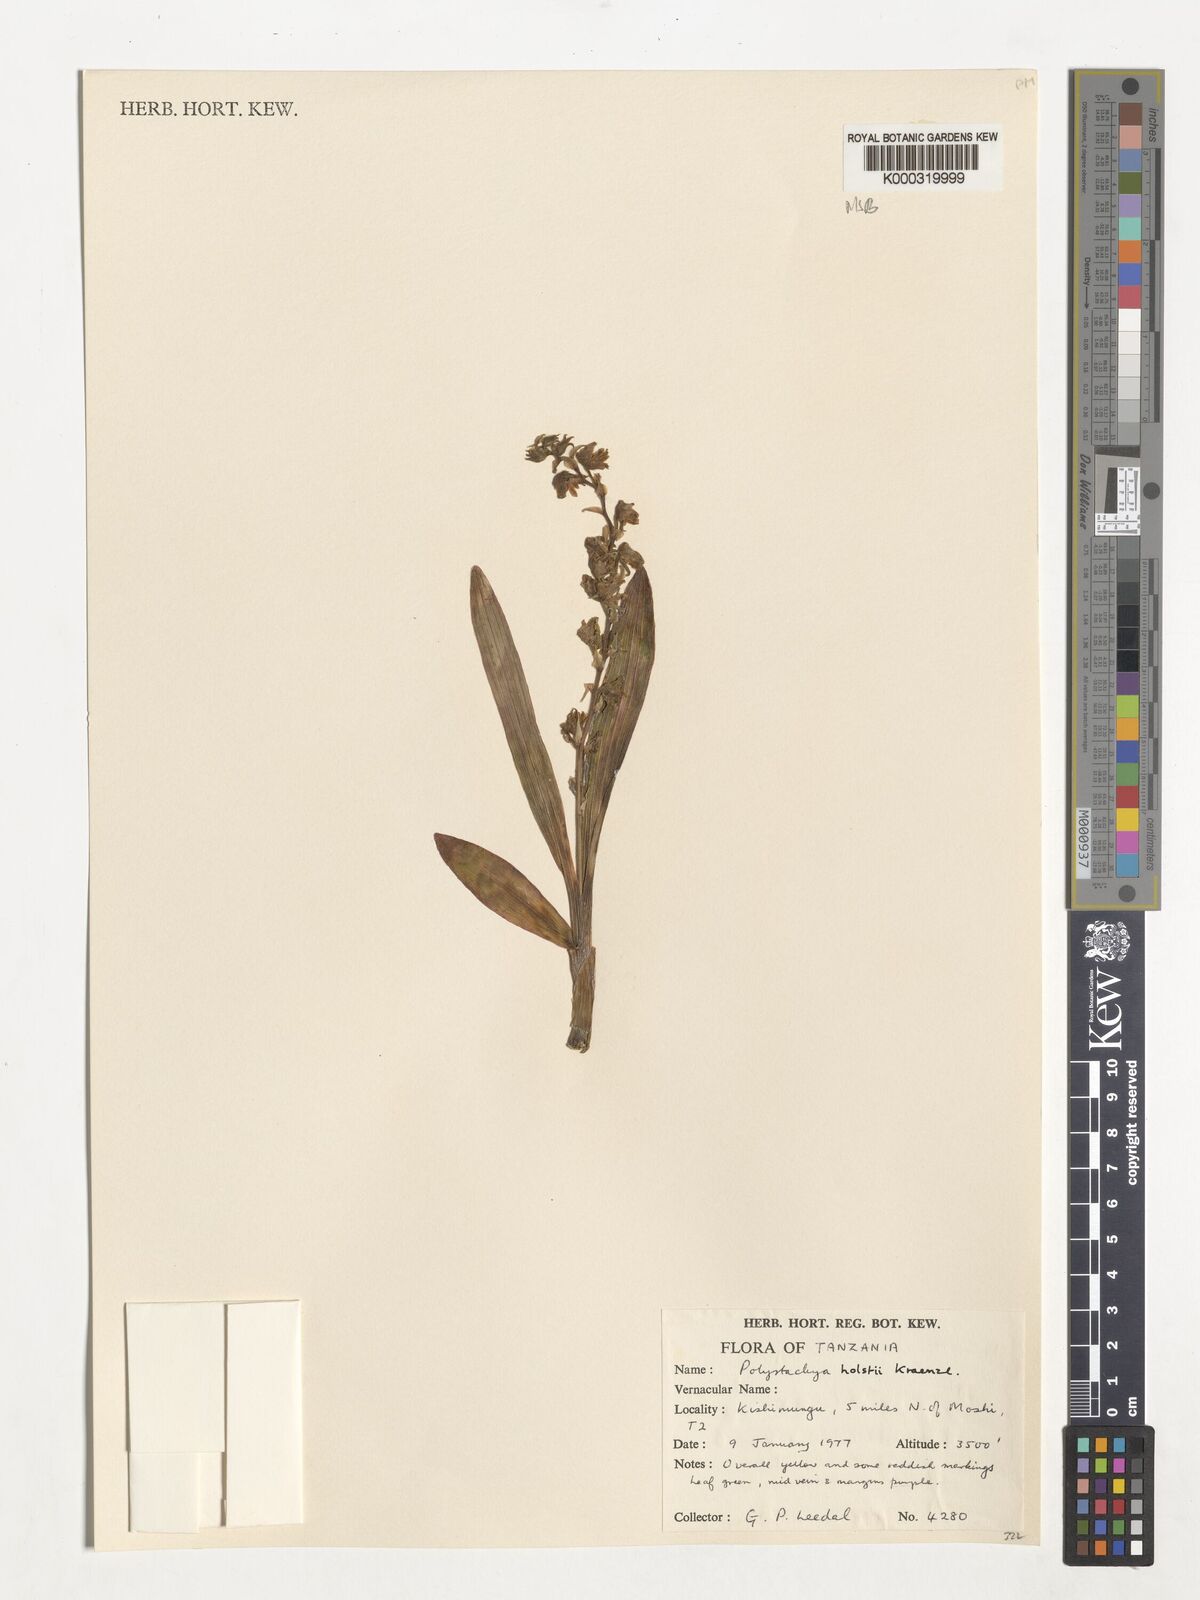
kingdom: Plantae
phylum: Tracheophyta
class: Liliopsida
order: Asparagales
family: Orchidaceae
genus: Polystachya
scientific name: Polystachya fischeri
